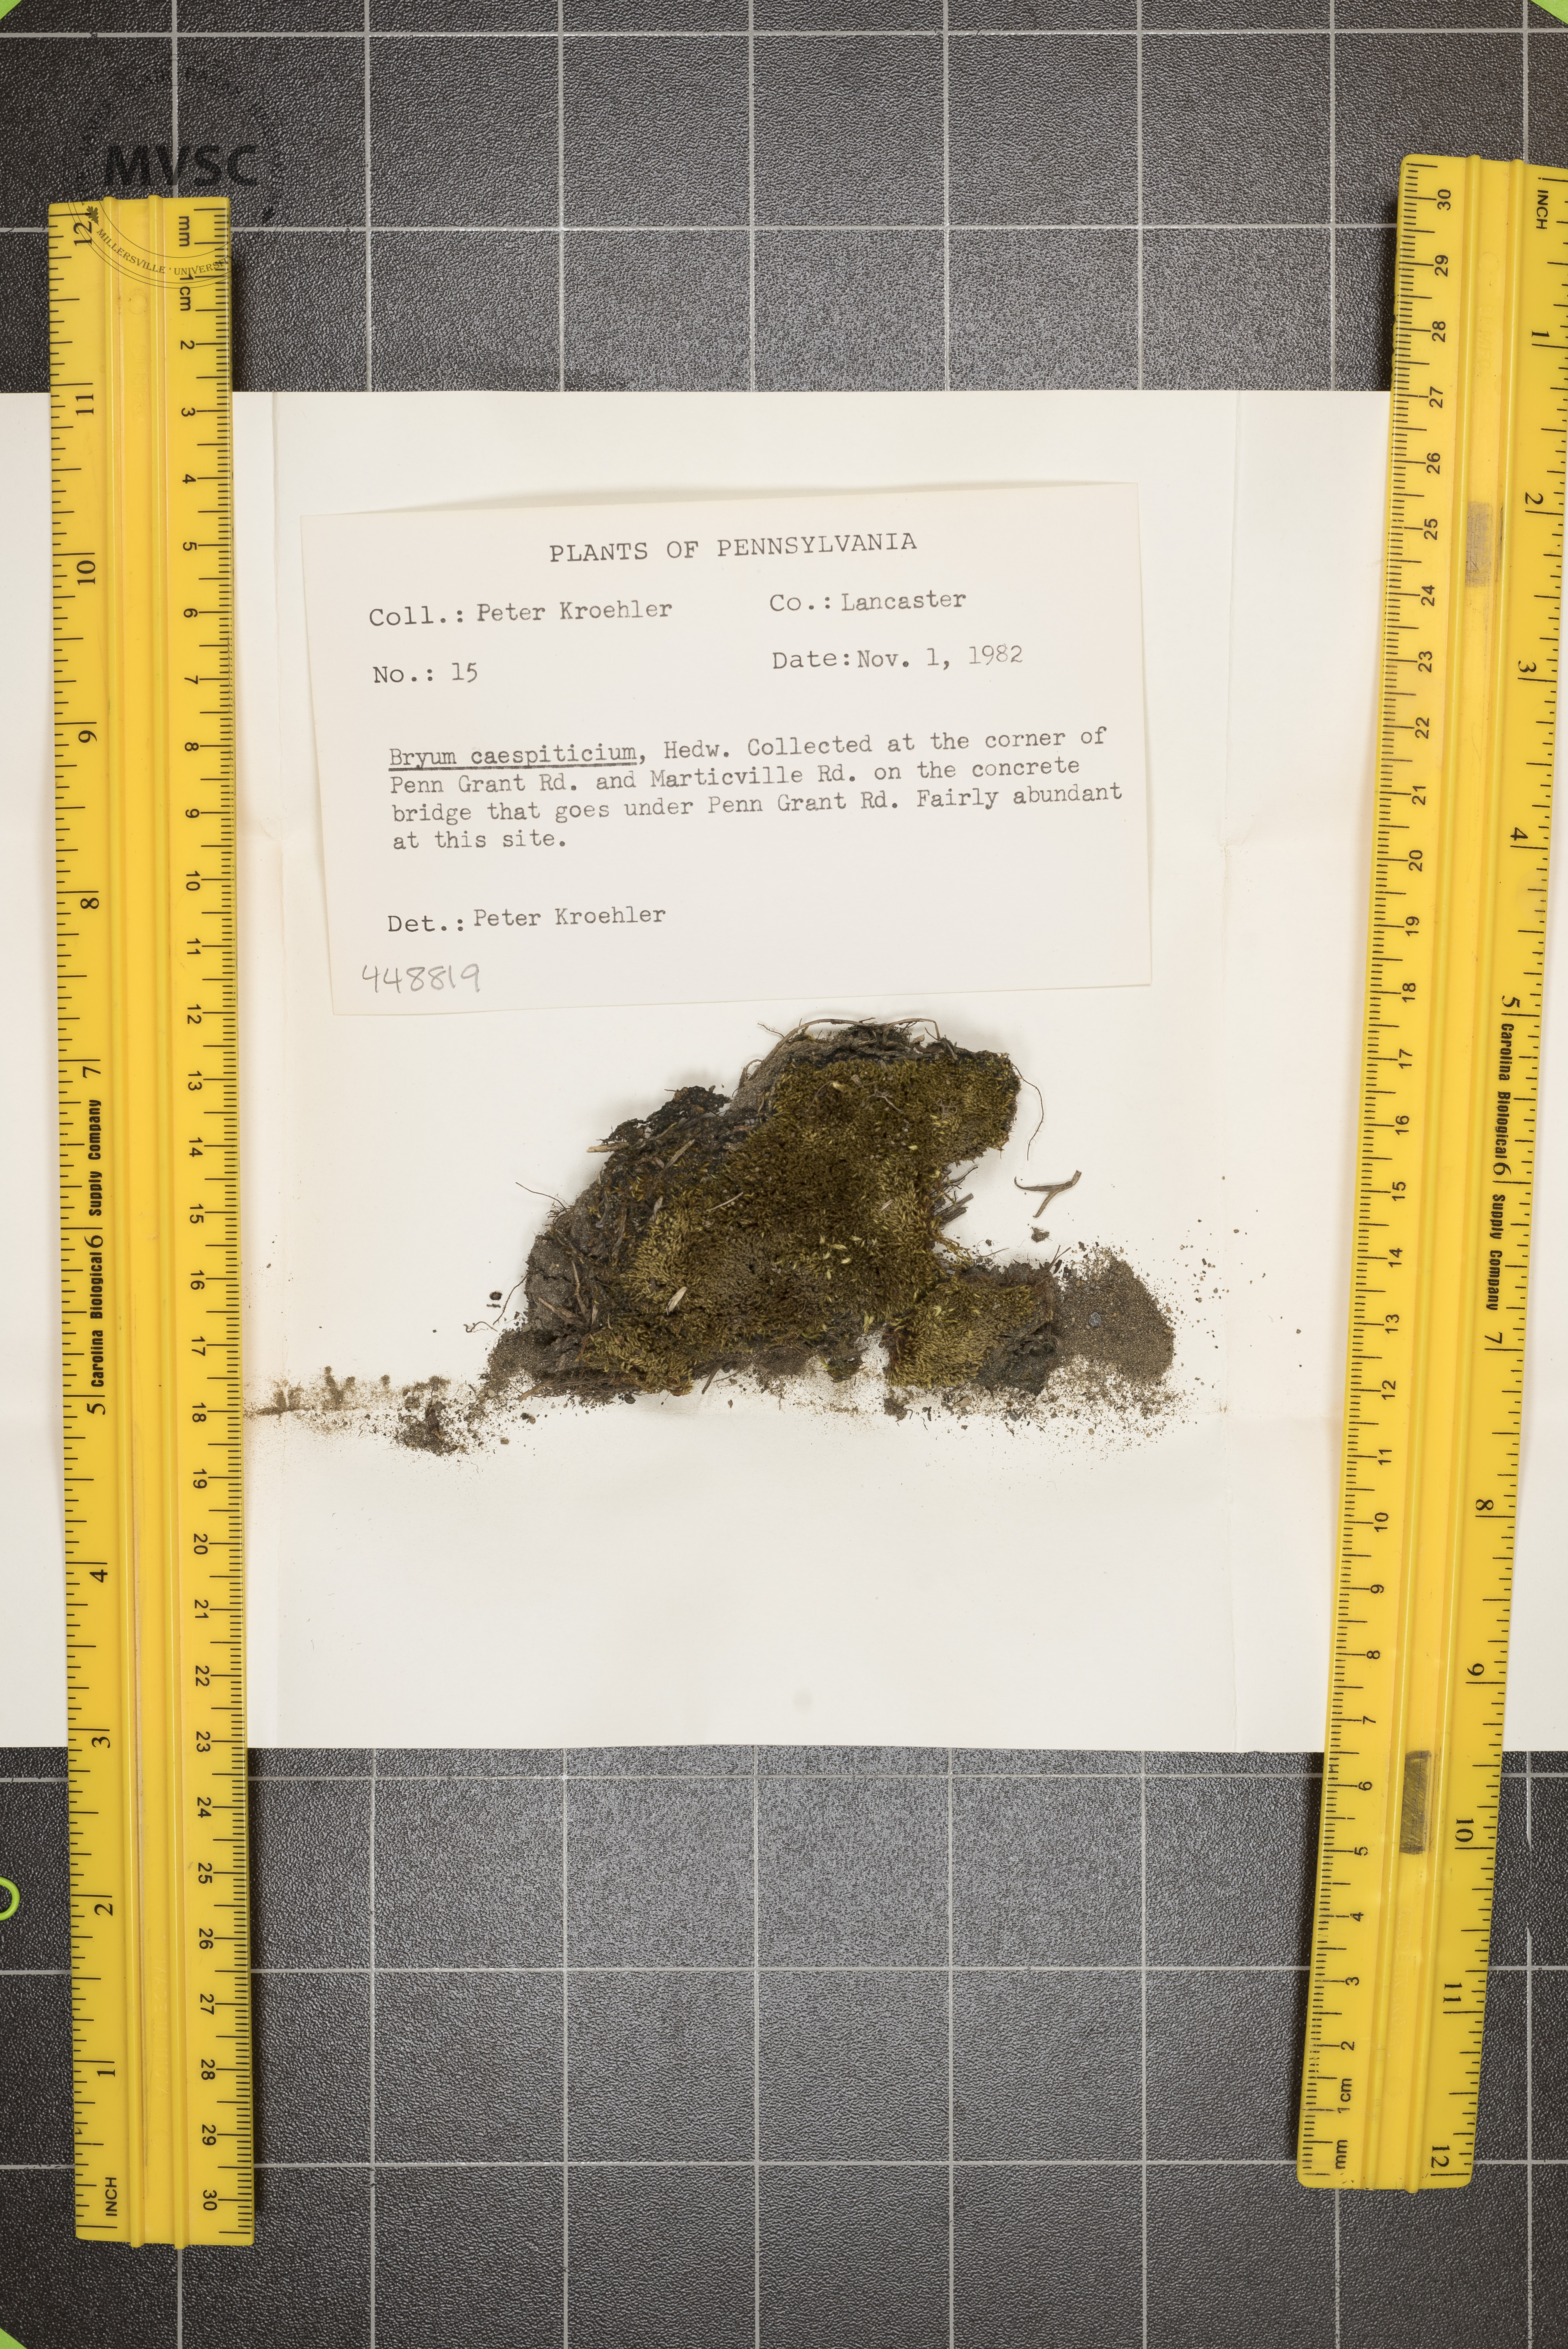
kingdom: Plantae
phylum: Bryophyta
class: Bryopsida
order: Bryales
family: Bryaceae
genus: Gemmabryum
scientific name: Gemmabryum caespiticium
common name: Handbell moss
